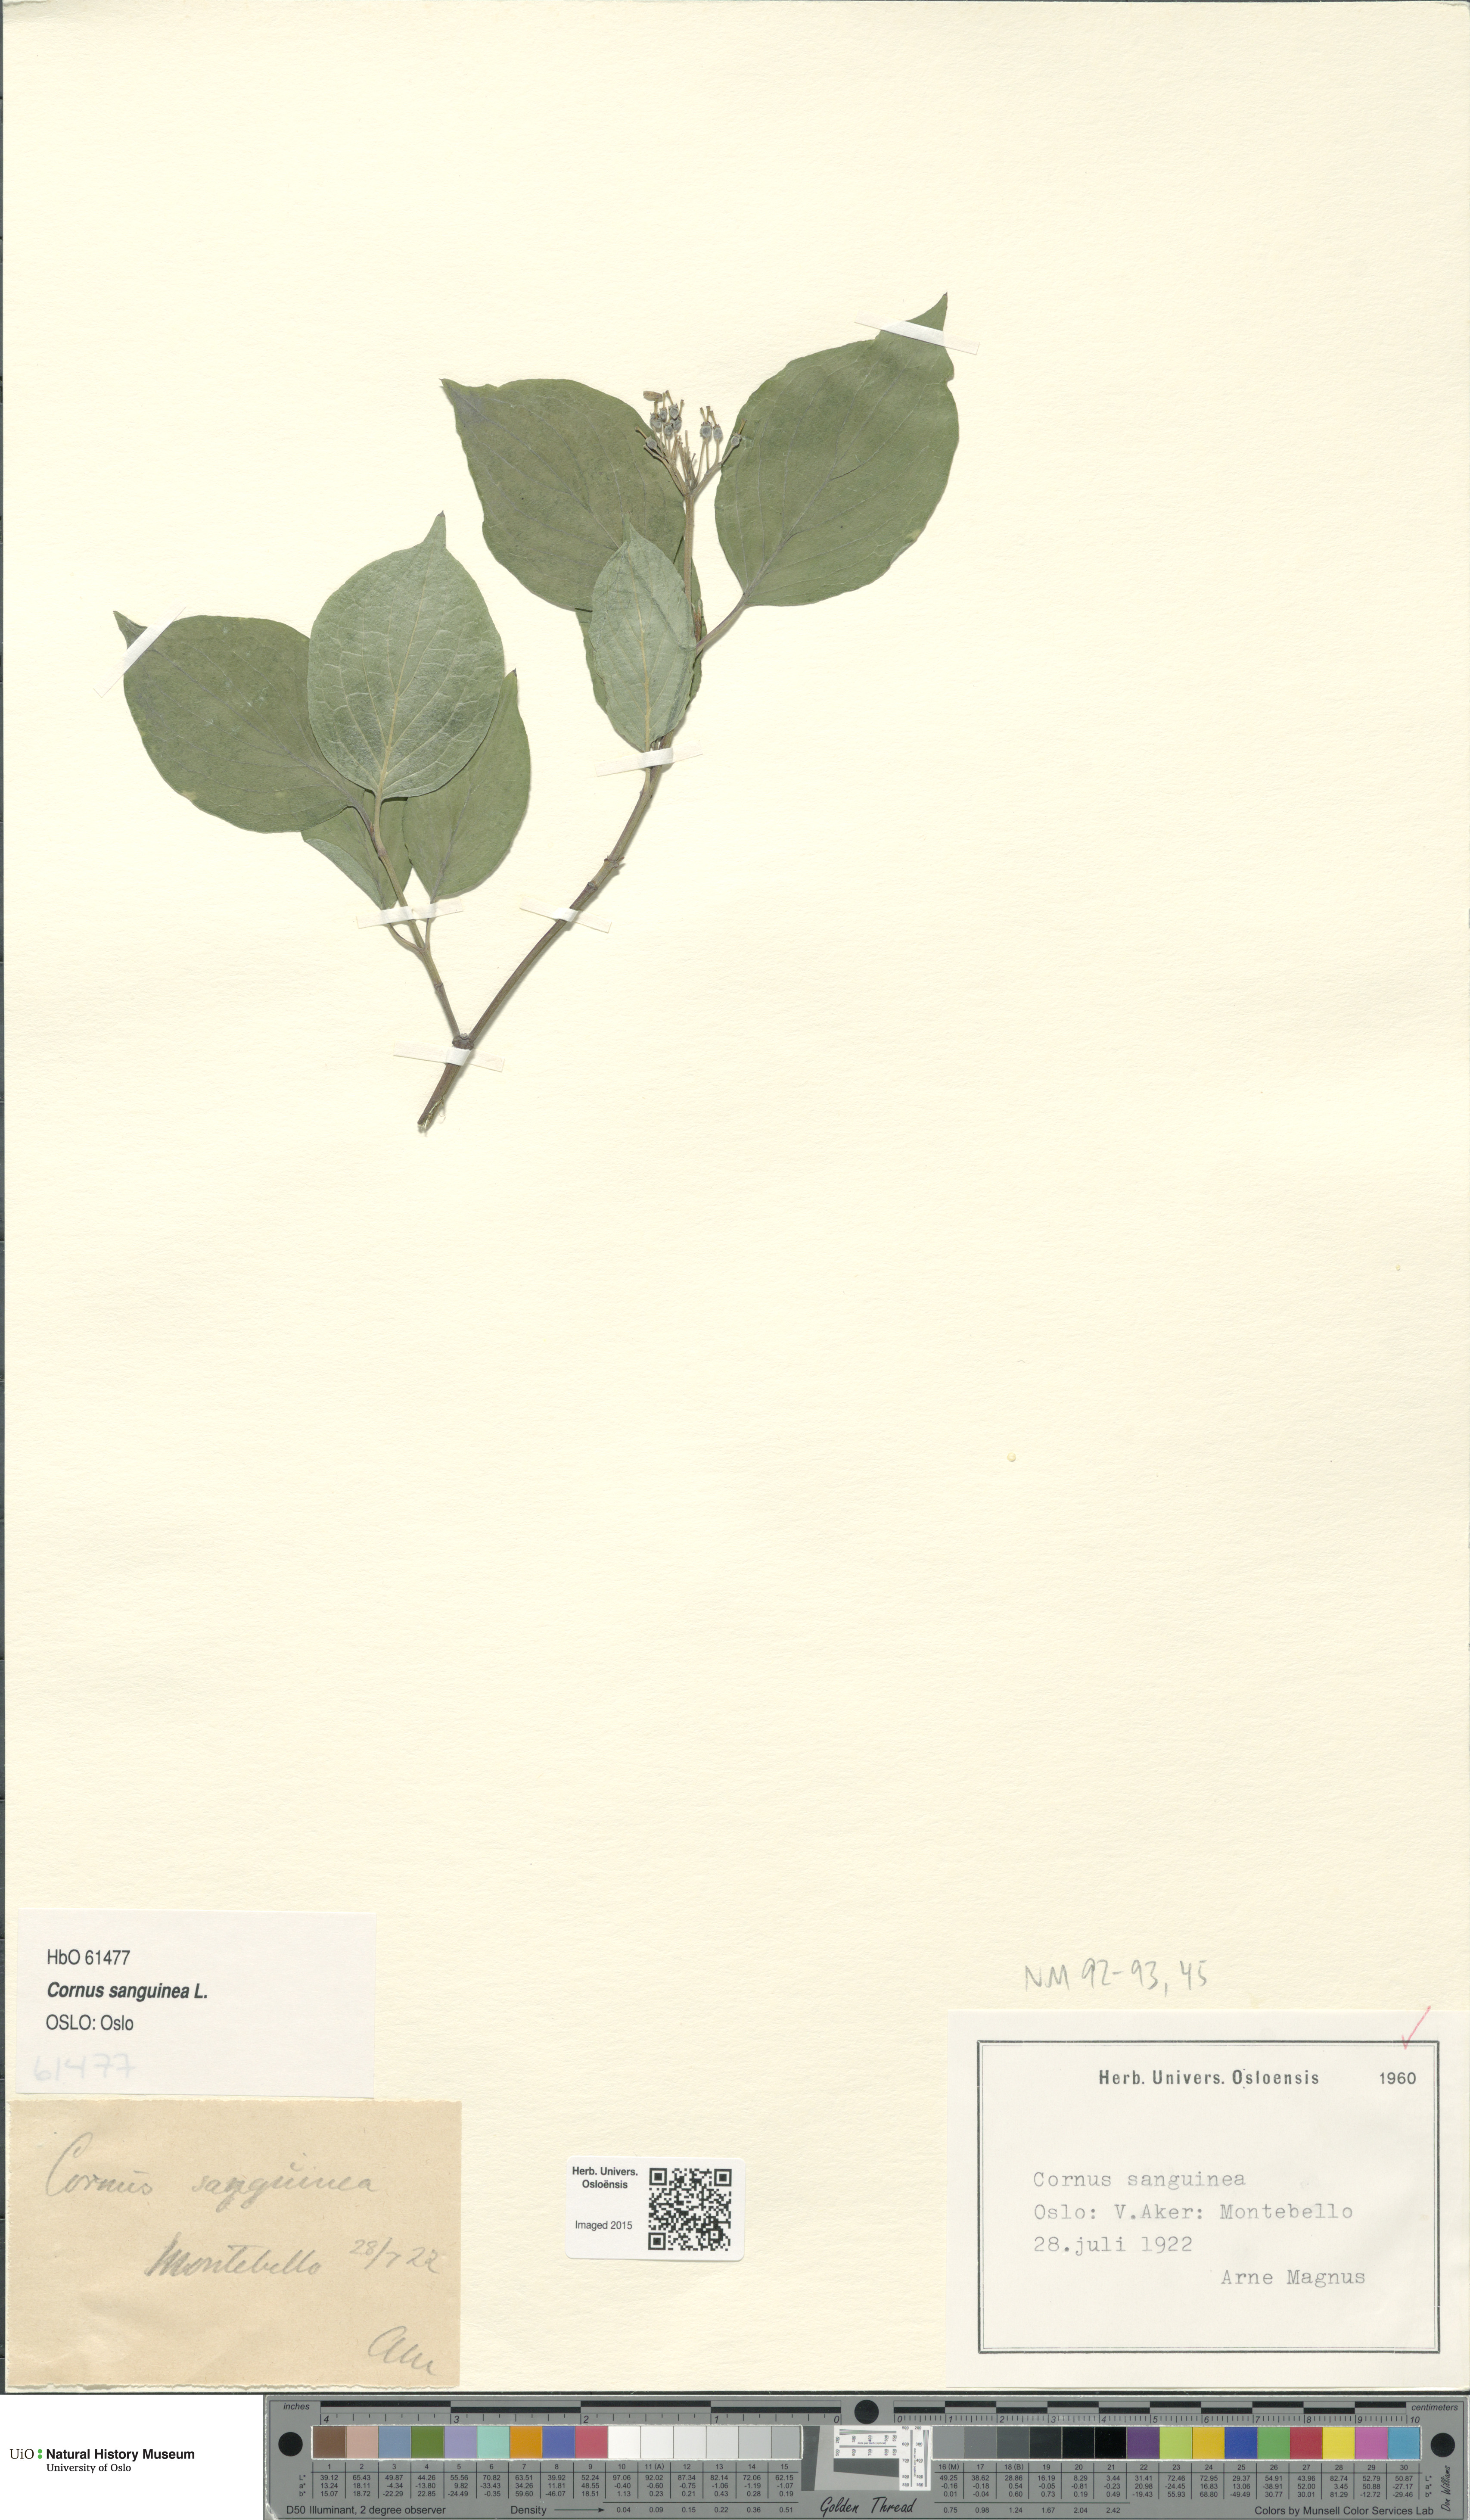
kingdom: Plantae
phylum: Tracheophyta
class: Magnoliopsida
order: Cornales
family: Cornaceae
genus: Cornus
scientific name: Cornus sanguinea
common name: Dogwood
